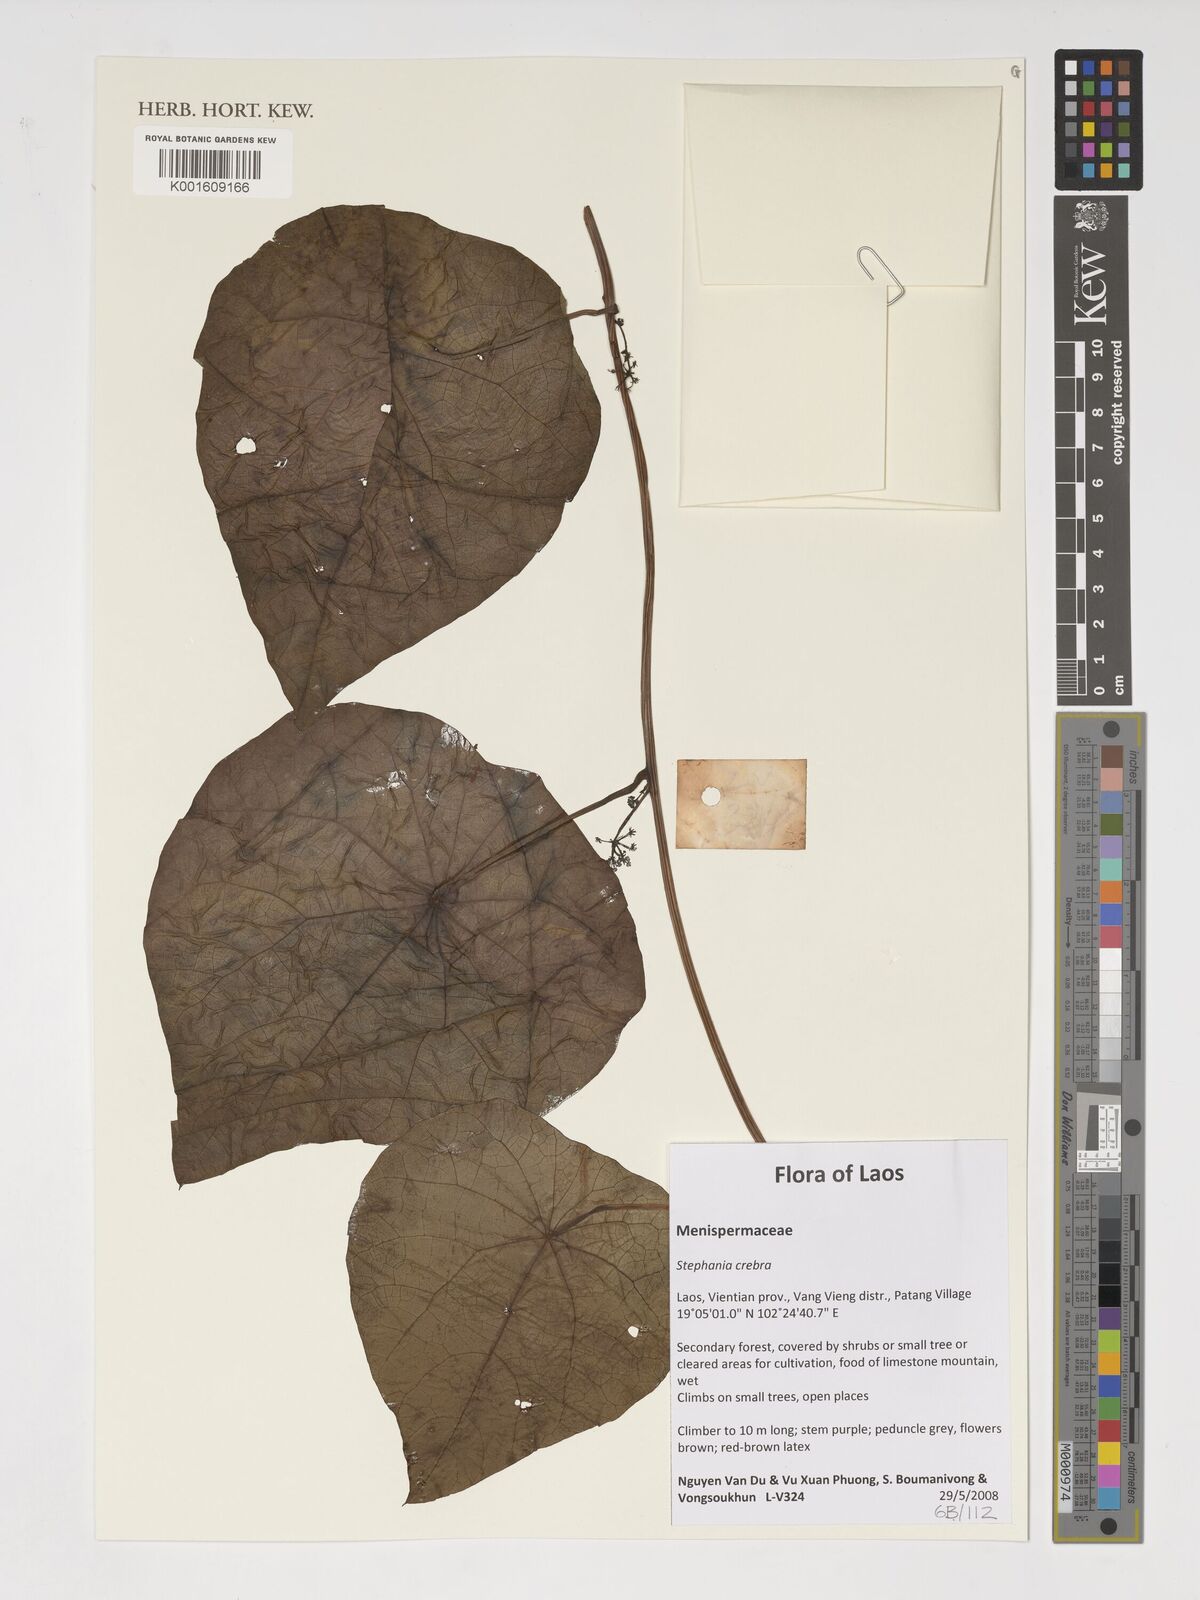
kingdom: Plantae
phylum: Tracheophyta
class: Magnoliopsida
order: Ranunculales
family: Menispermaceae
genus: Stephania
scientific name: Stephania crebra
